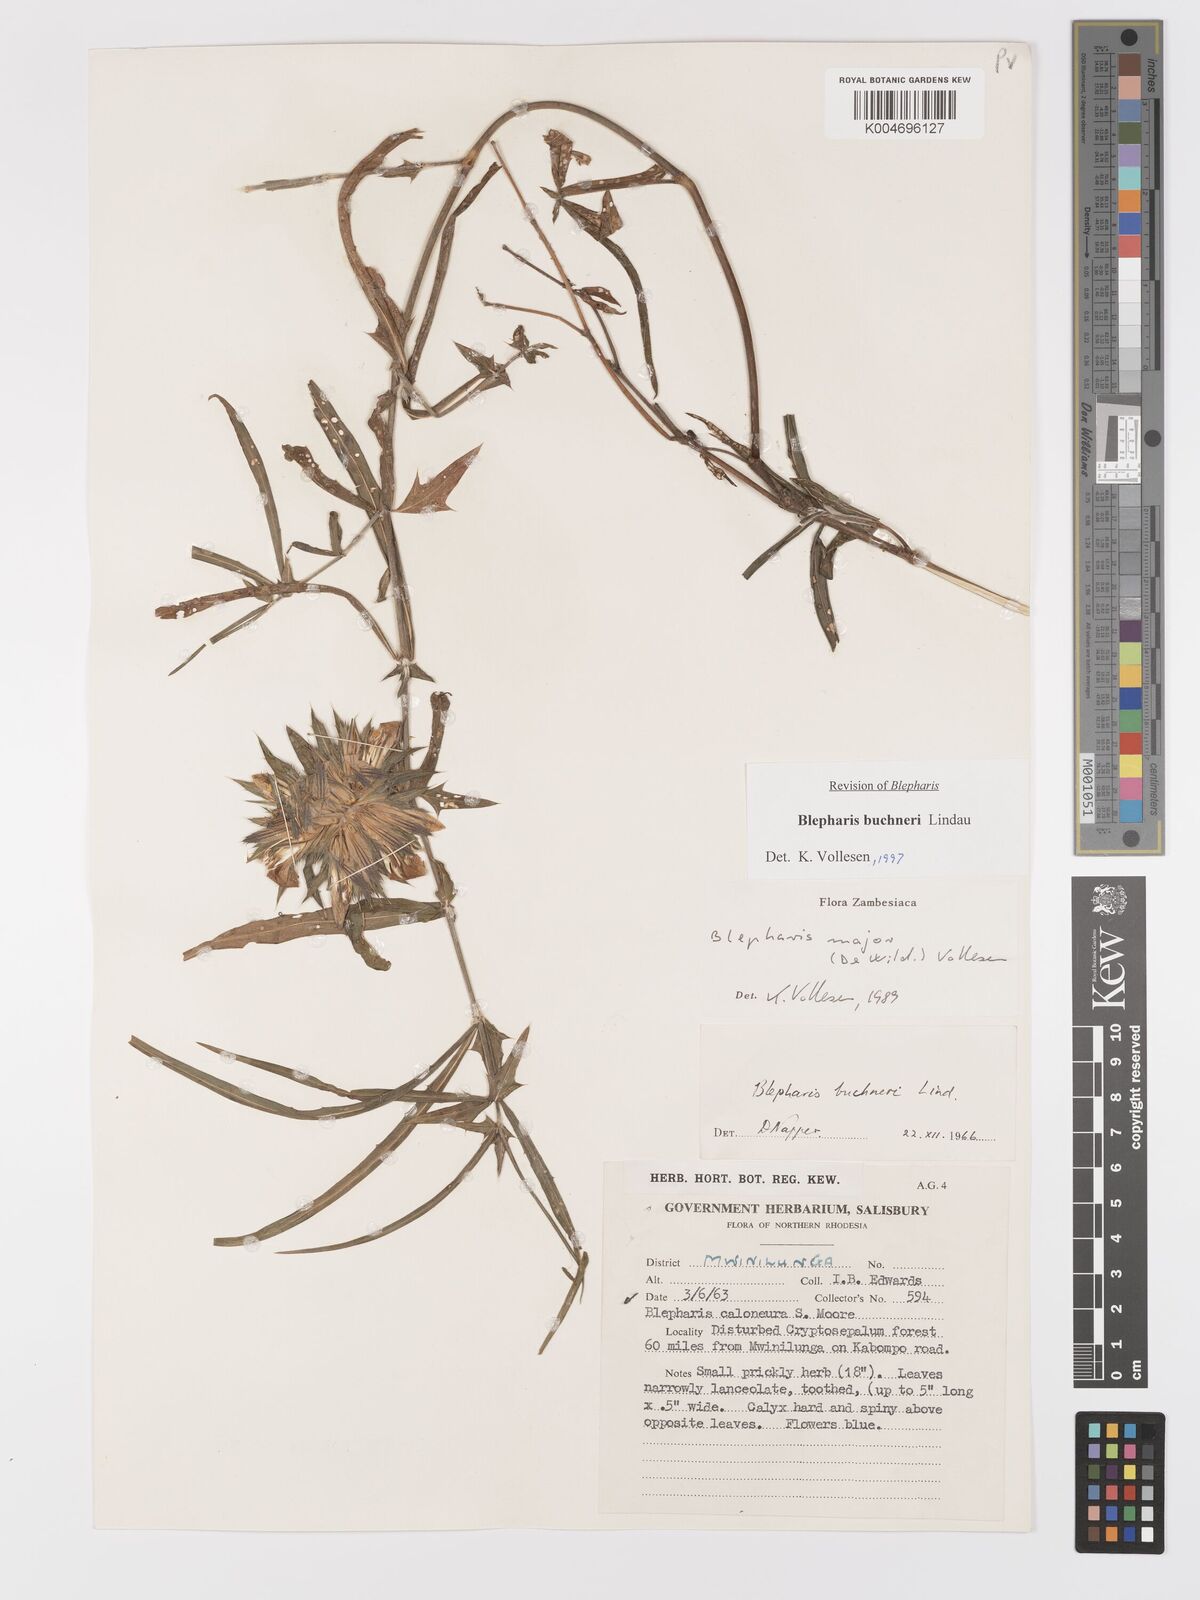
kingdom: Plantae
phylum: Tracheophyta
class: Magnoliopsida
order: Lamiales
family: Acanthaceae
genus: Blepharis
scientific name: Blepharis buchneri
